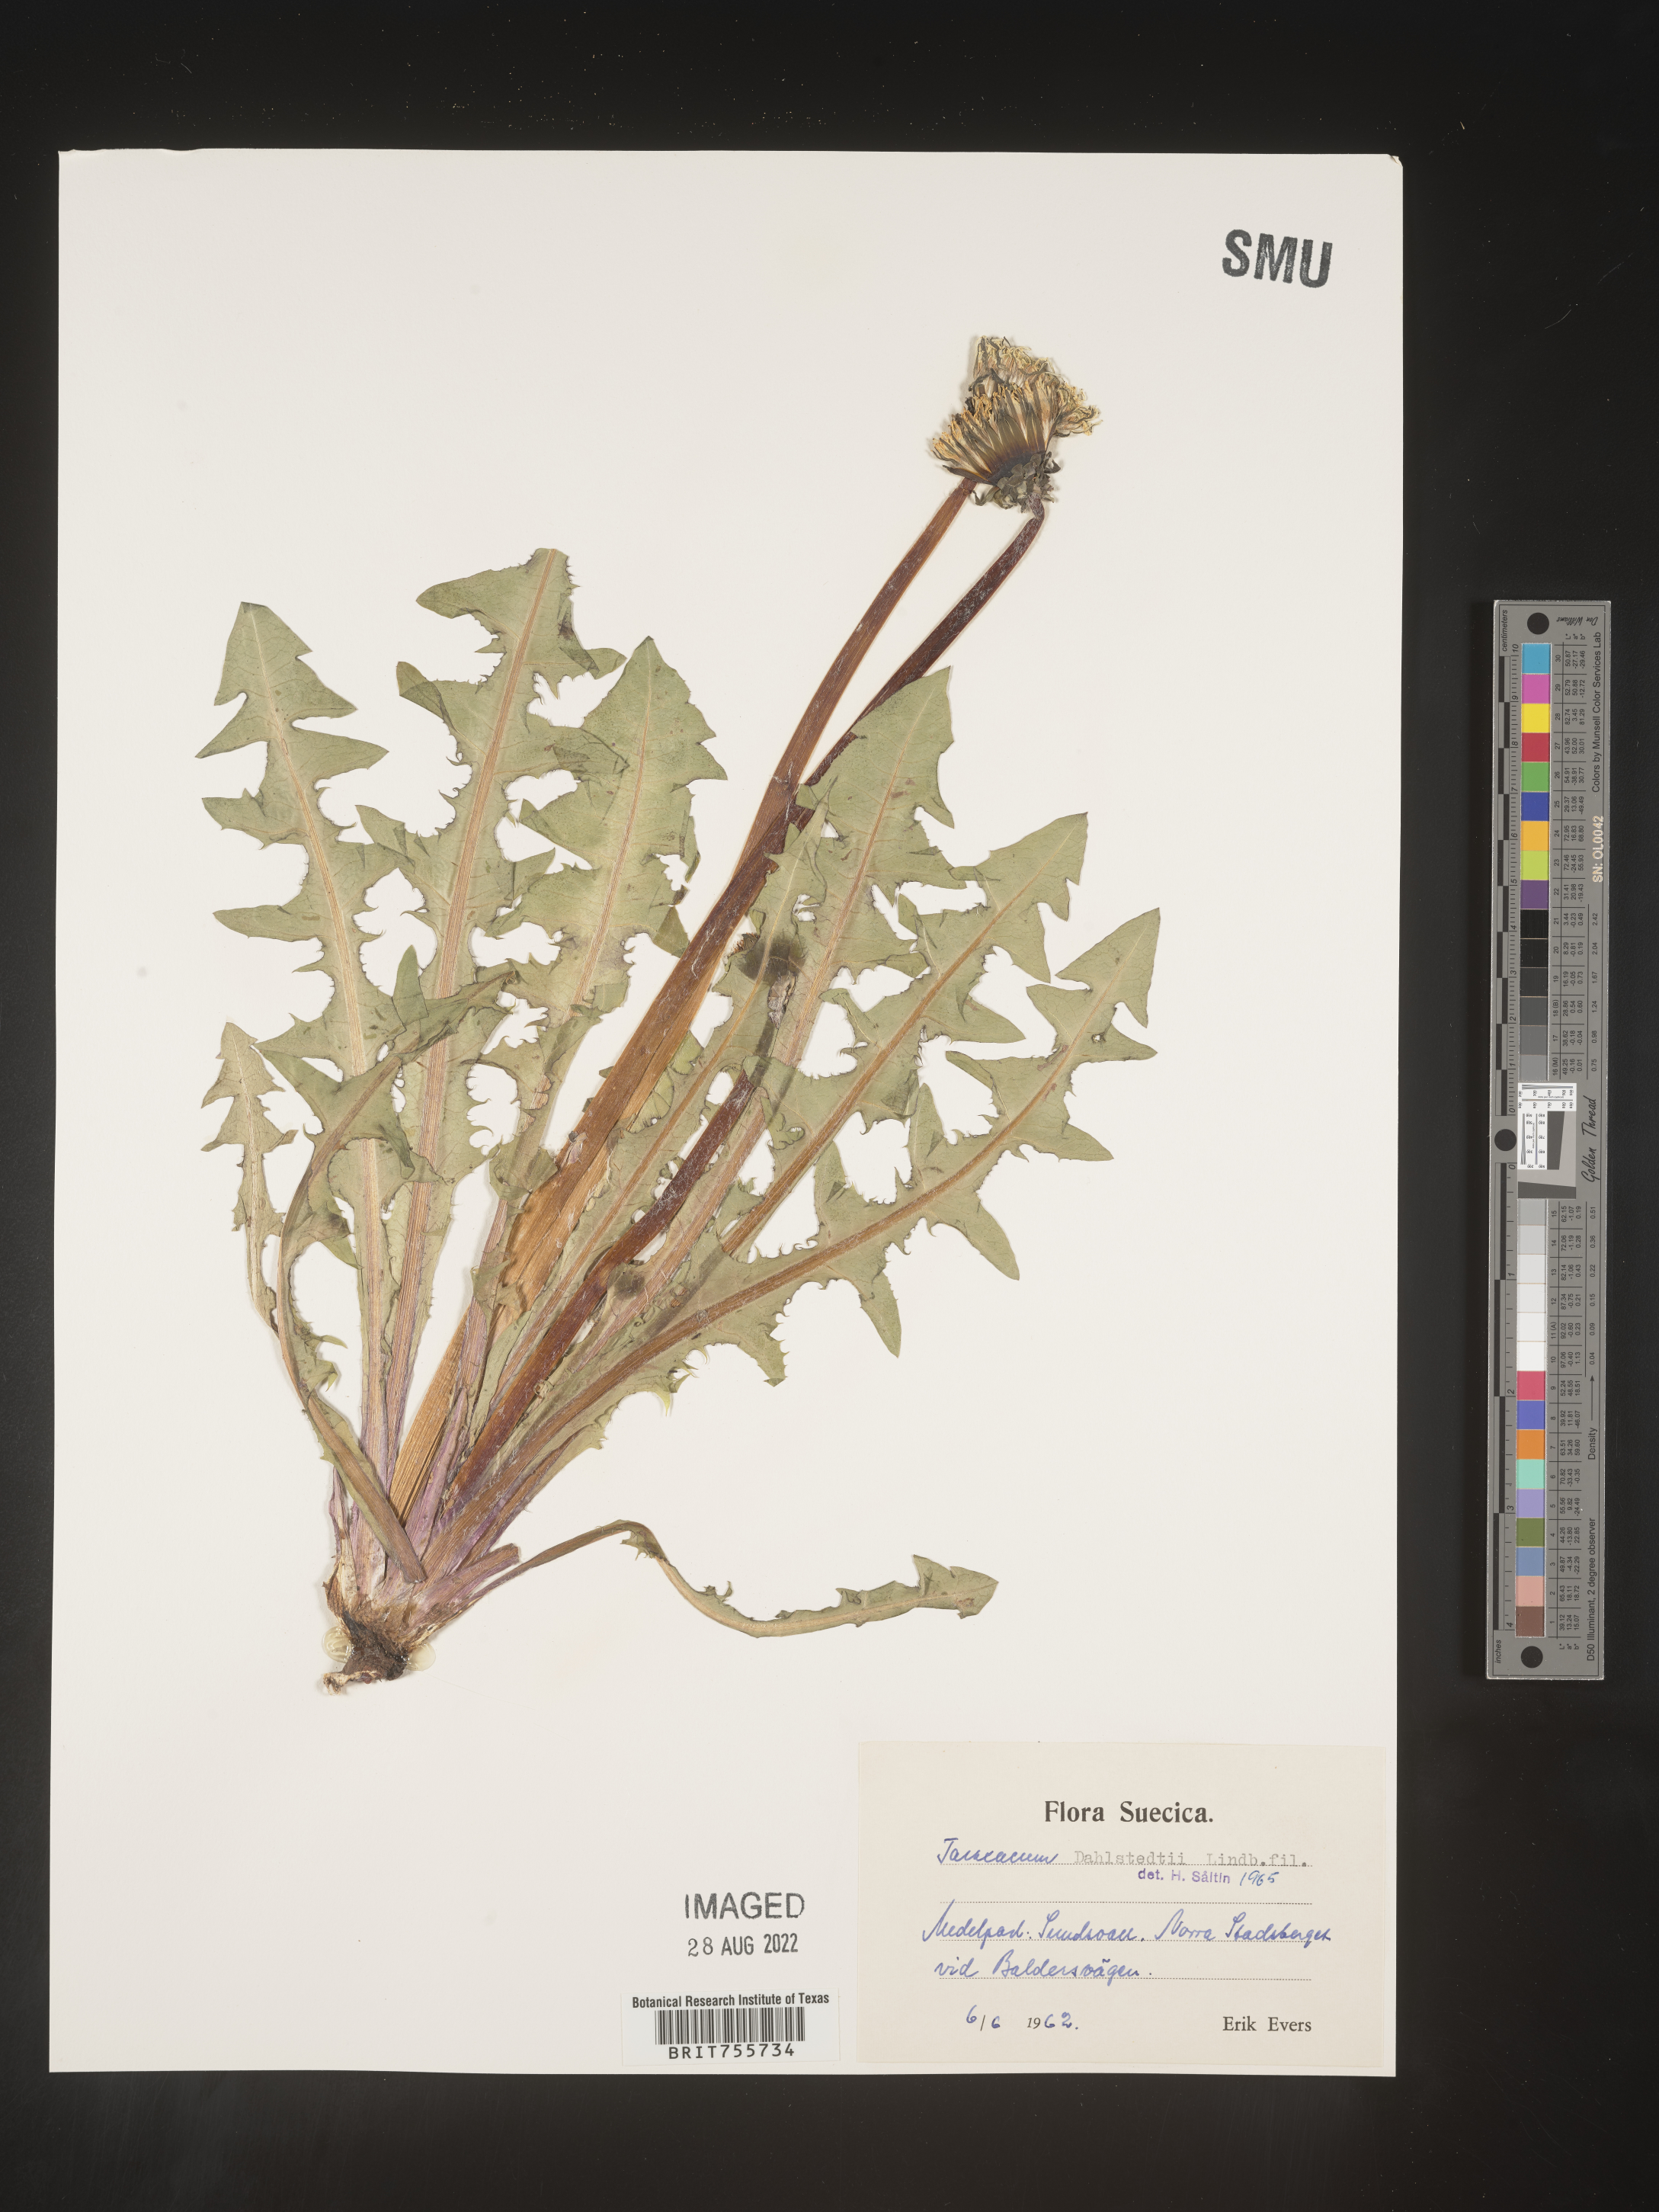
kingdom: Plantae
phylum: Tracheophyta
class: Magnoliopsida
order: Asterales
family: Asteraceae
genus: Taraxacum
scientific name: Taraxacum
